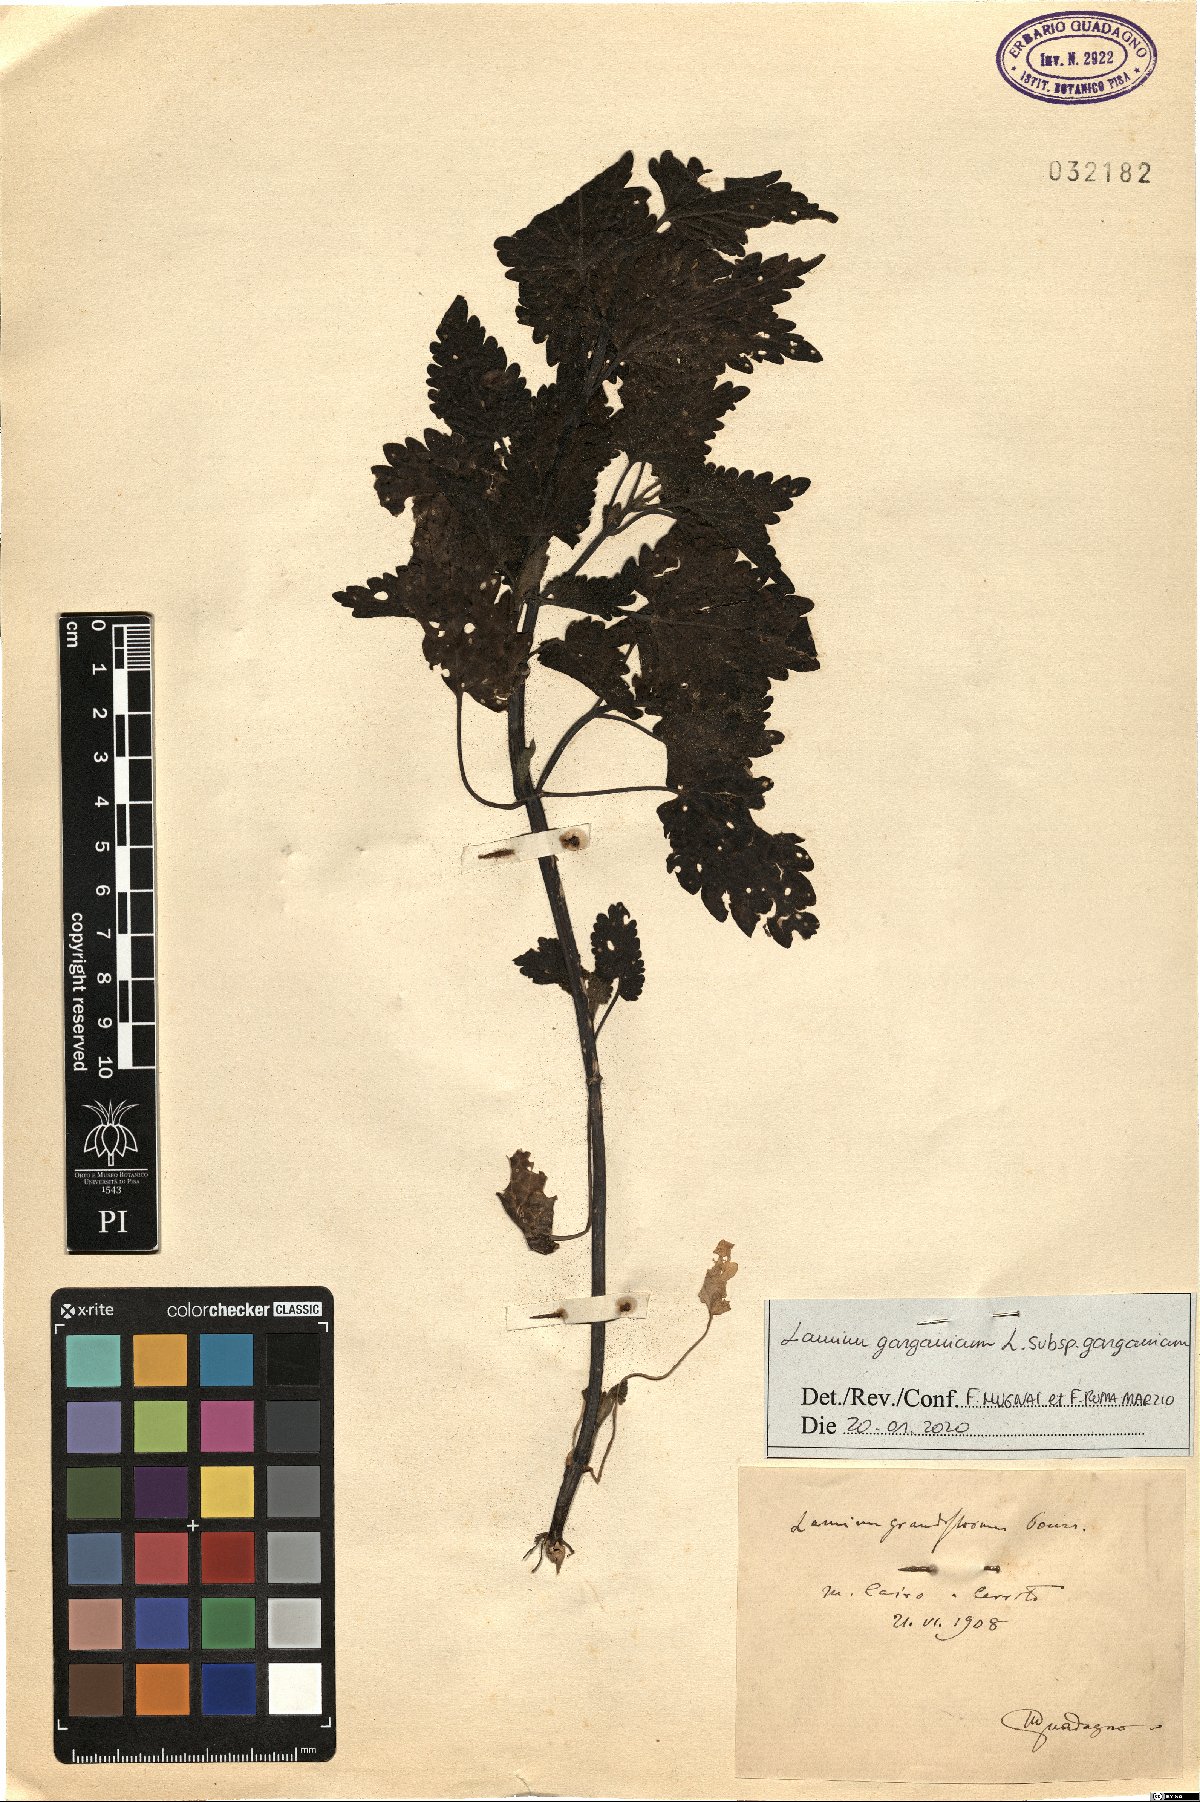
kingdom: Plantae
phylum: Tracheophyta
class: Magnoliopsida
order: Lamiales
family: Lamiaceae
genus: Lamium
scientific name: Lamium garganicum
